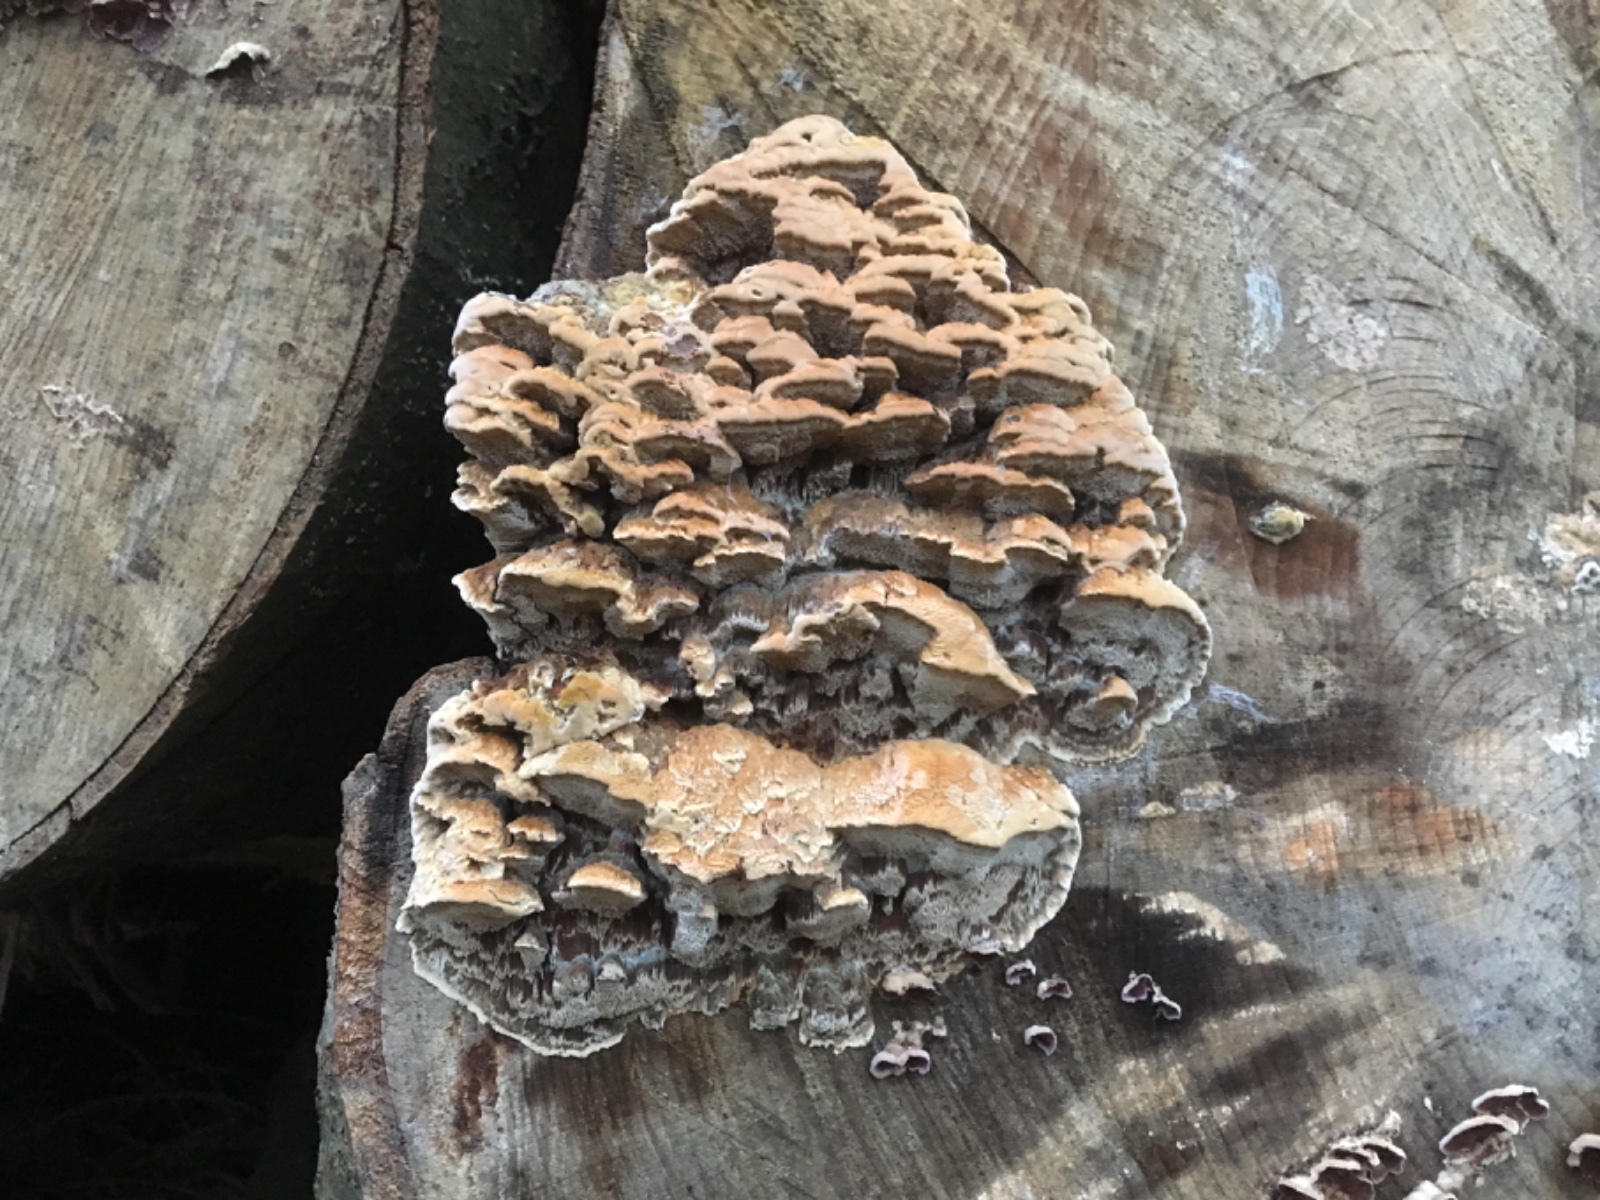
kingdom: Fungi
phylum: Basidiomycota
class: Agaricomycetes
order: Hymenochaetales
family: Hymenochaetaceae
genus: Mensularia
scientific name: Mensularia nodulosa
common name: bøge-spejlporesvamp
